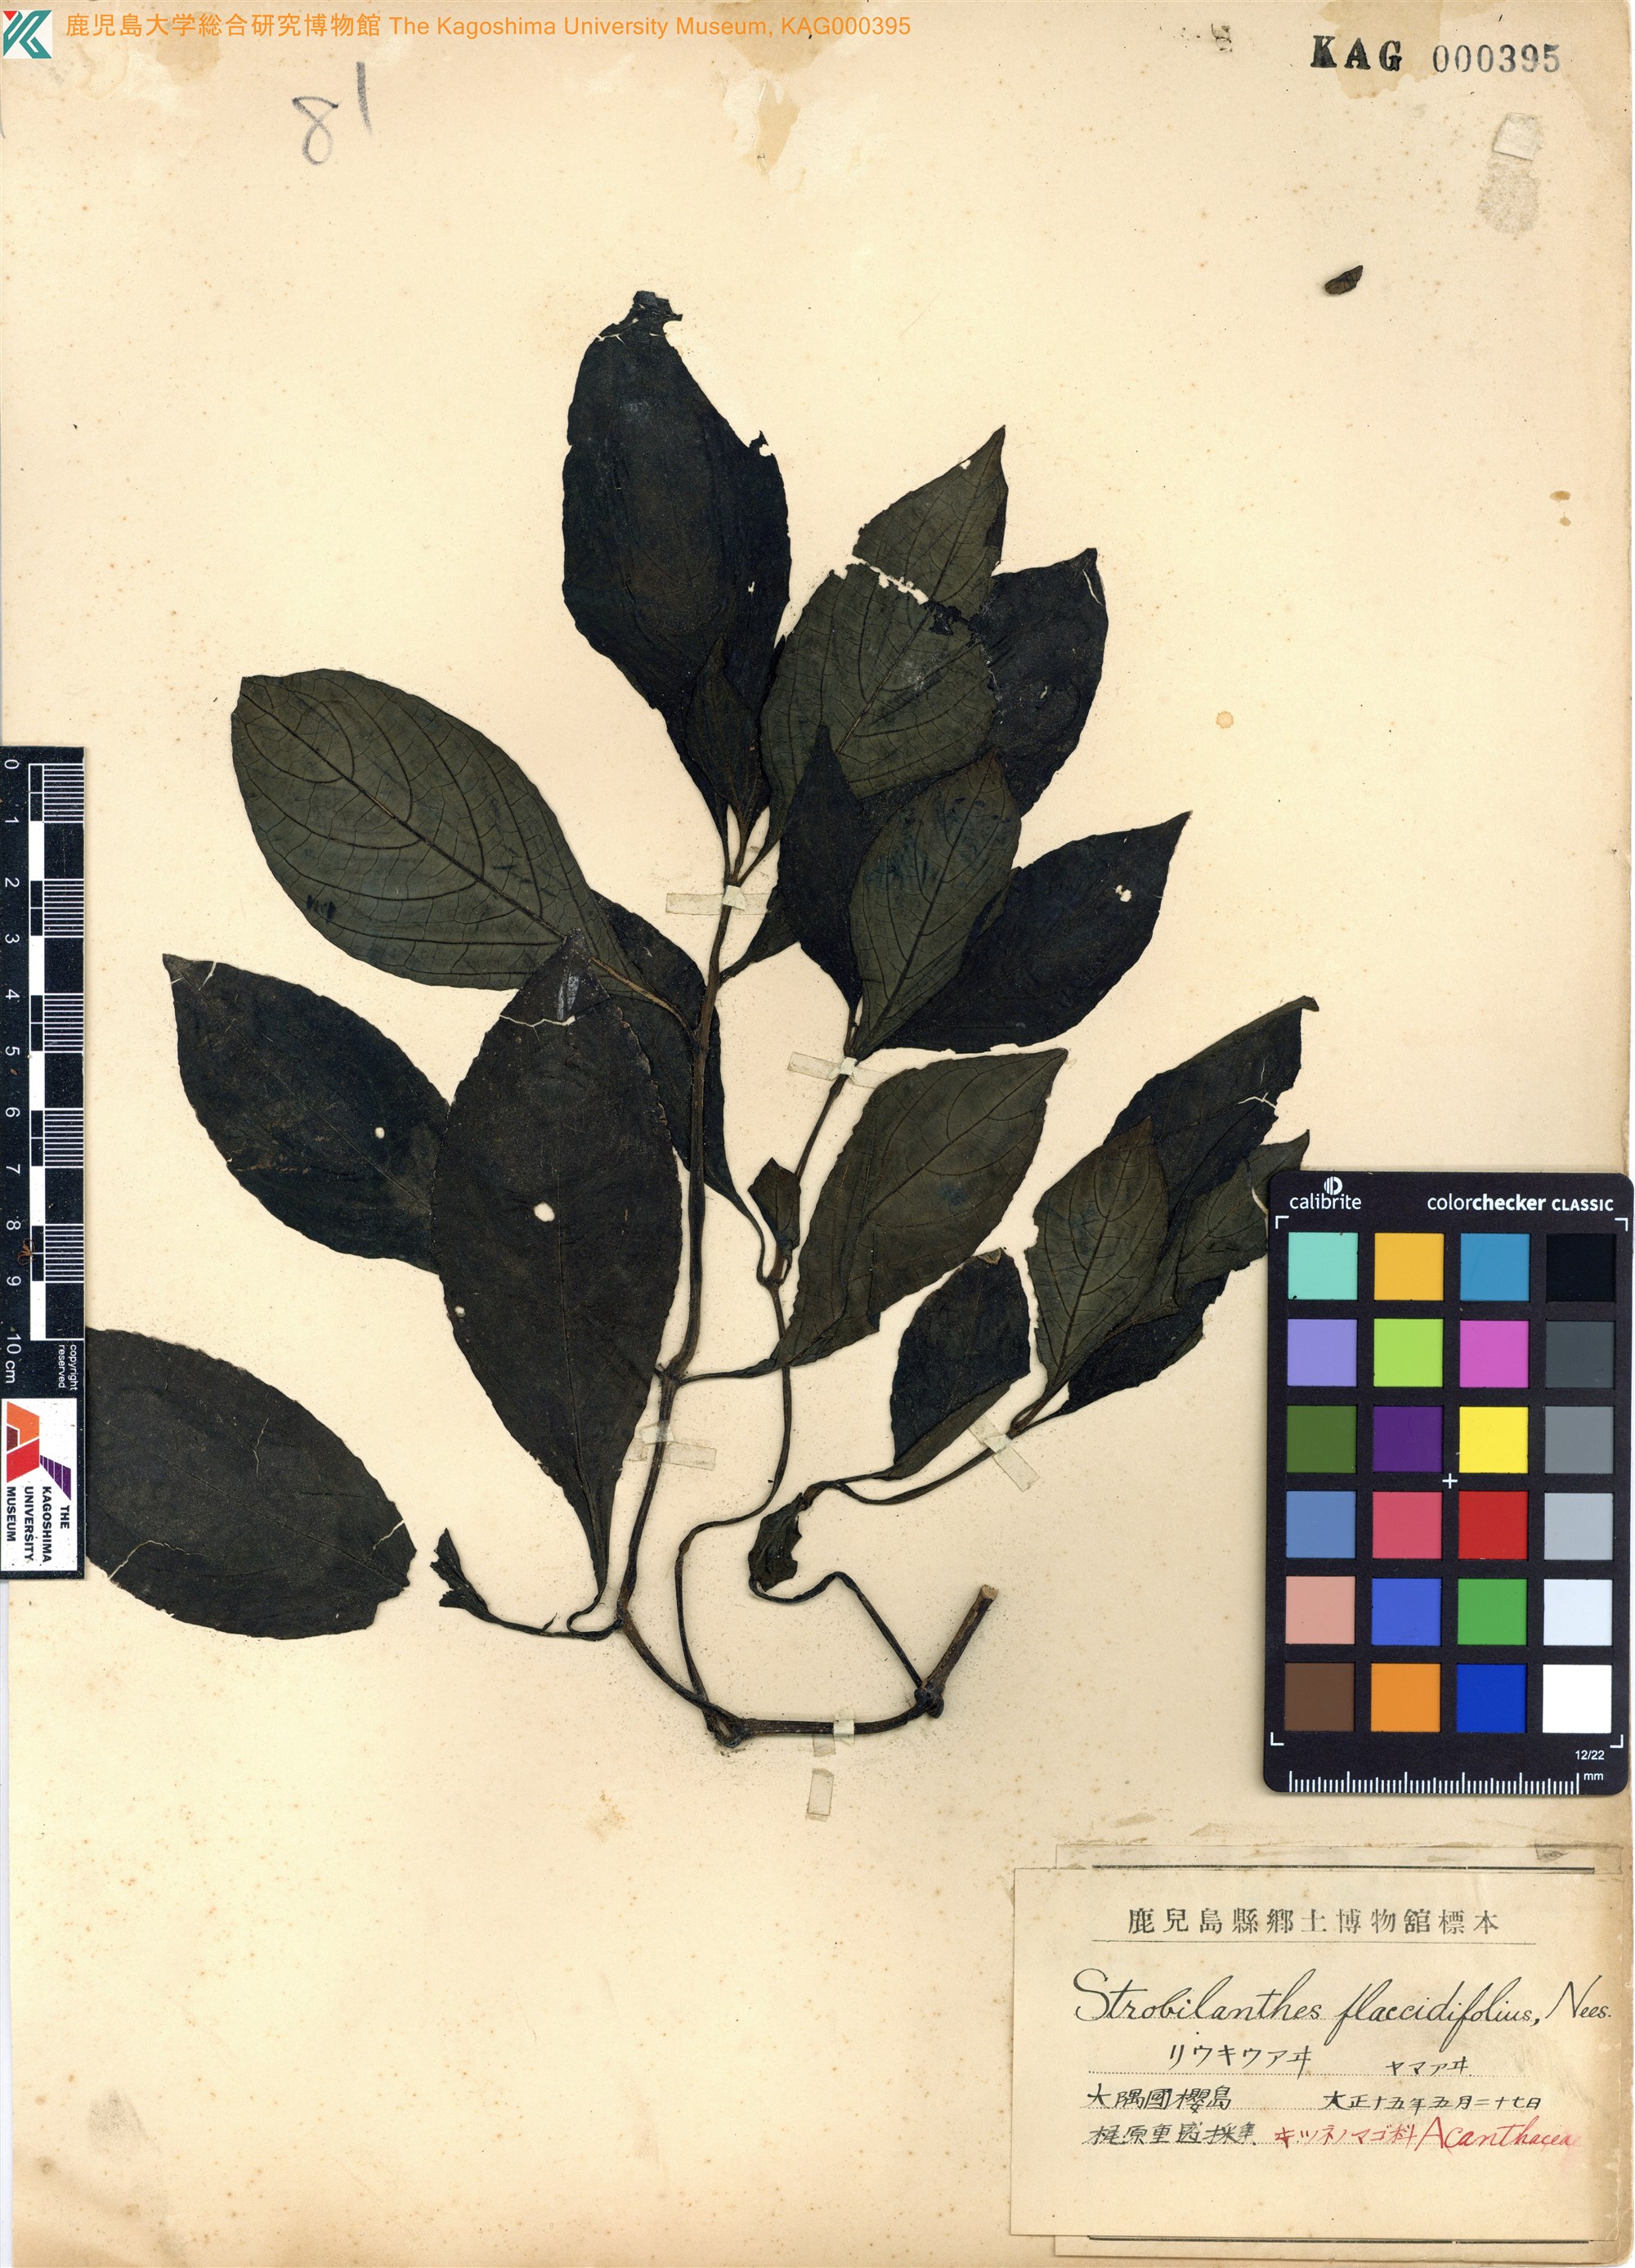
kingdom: Plantae
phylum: Tracheophyta
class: Magnoliopsida
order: Lamiales
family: Acanthaceae
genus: Strobilanthes
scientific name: Strobilanthes cusia
